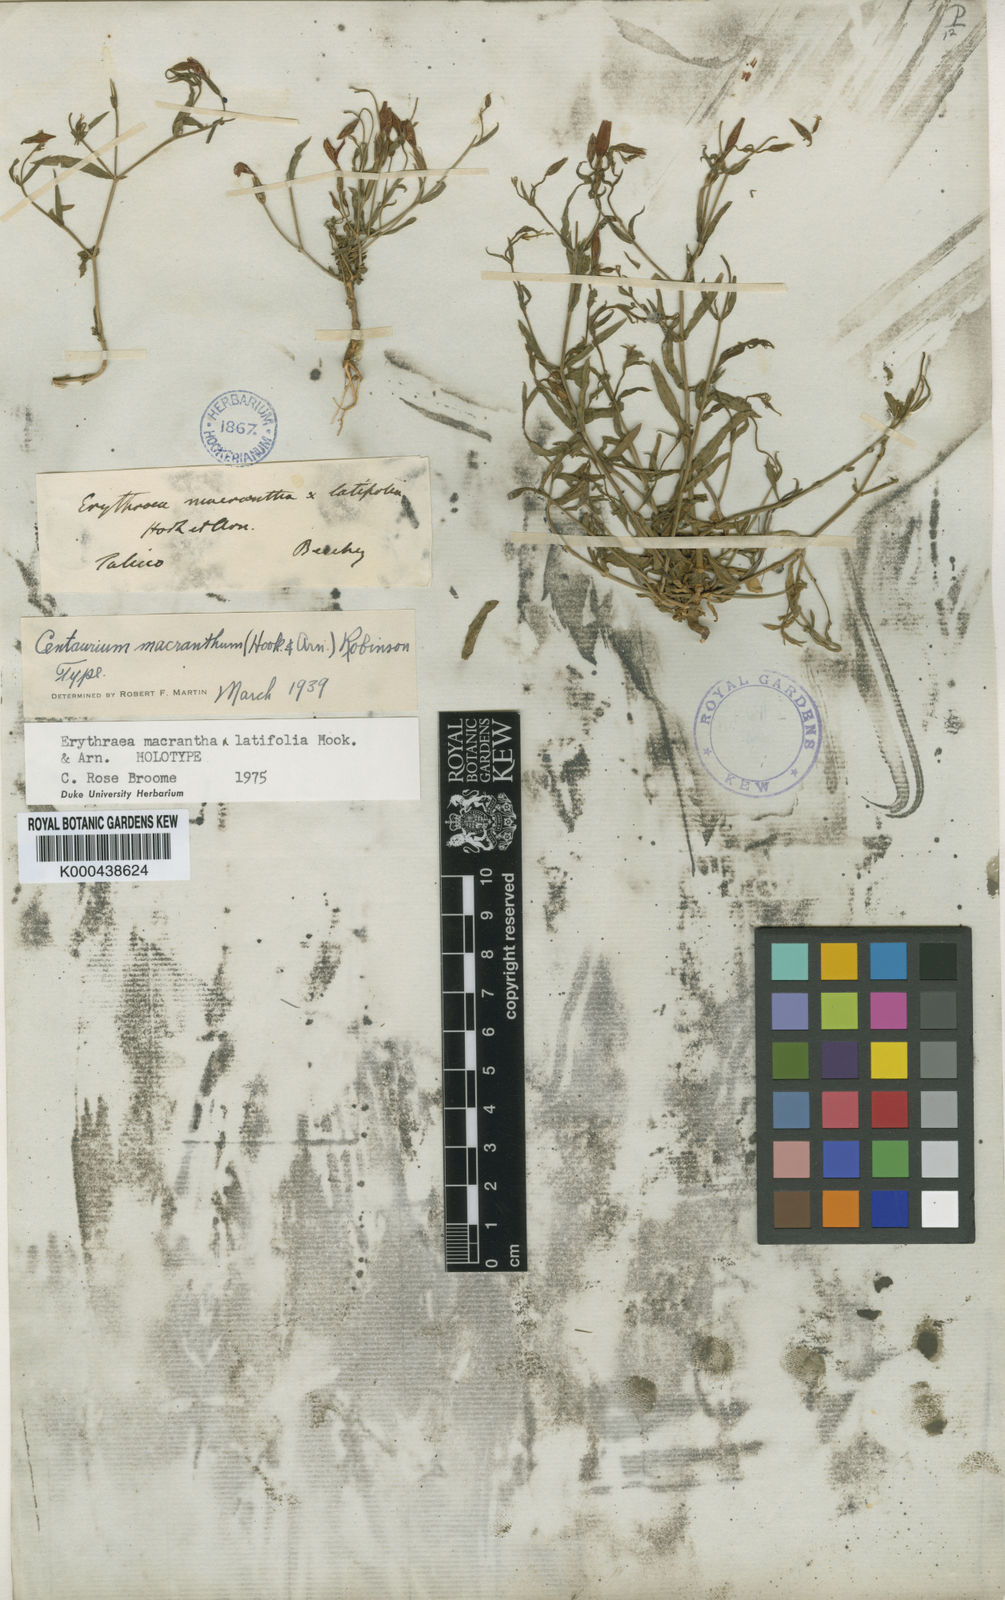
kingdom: Plantae
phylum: Tracheophyta
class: Magnoliopsida
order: Gentianales
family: Gentianaceae
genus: Centaurium
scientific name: Centaurium
